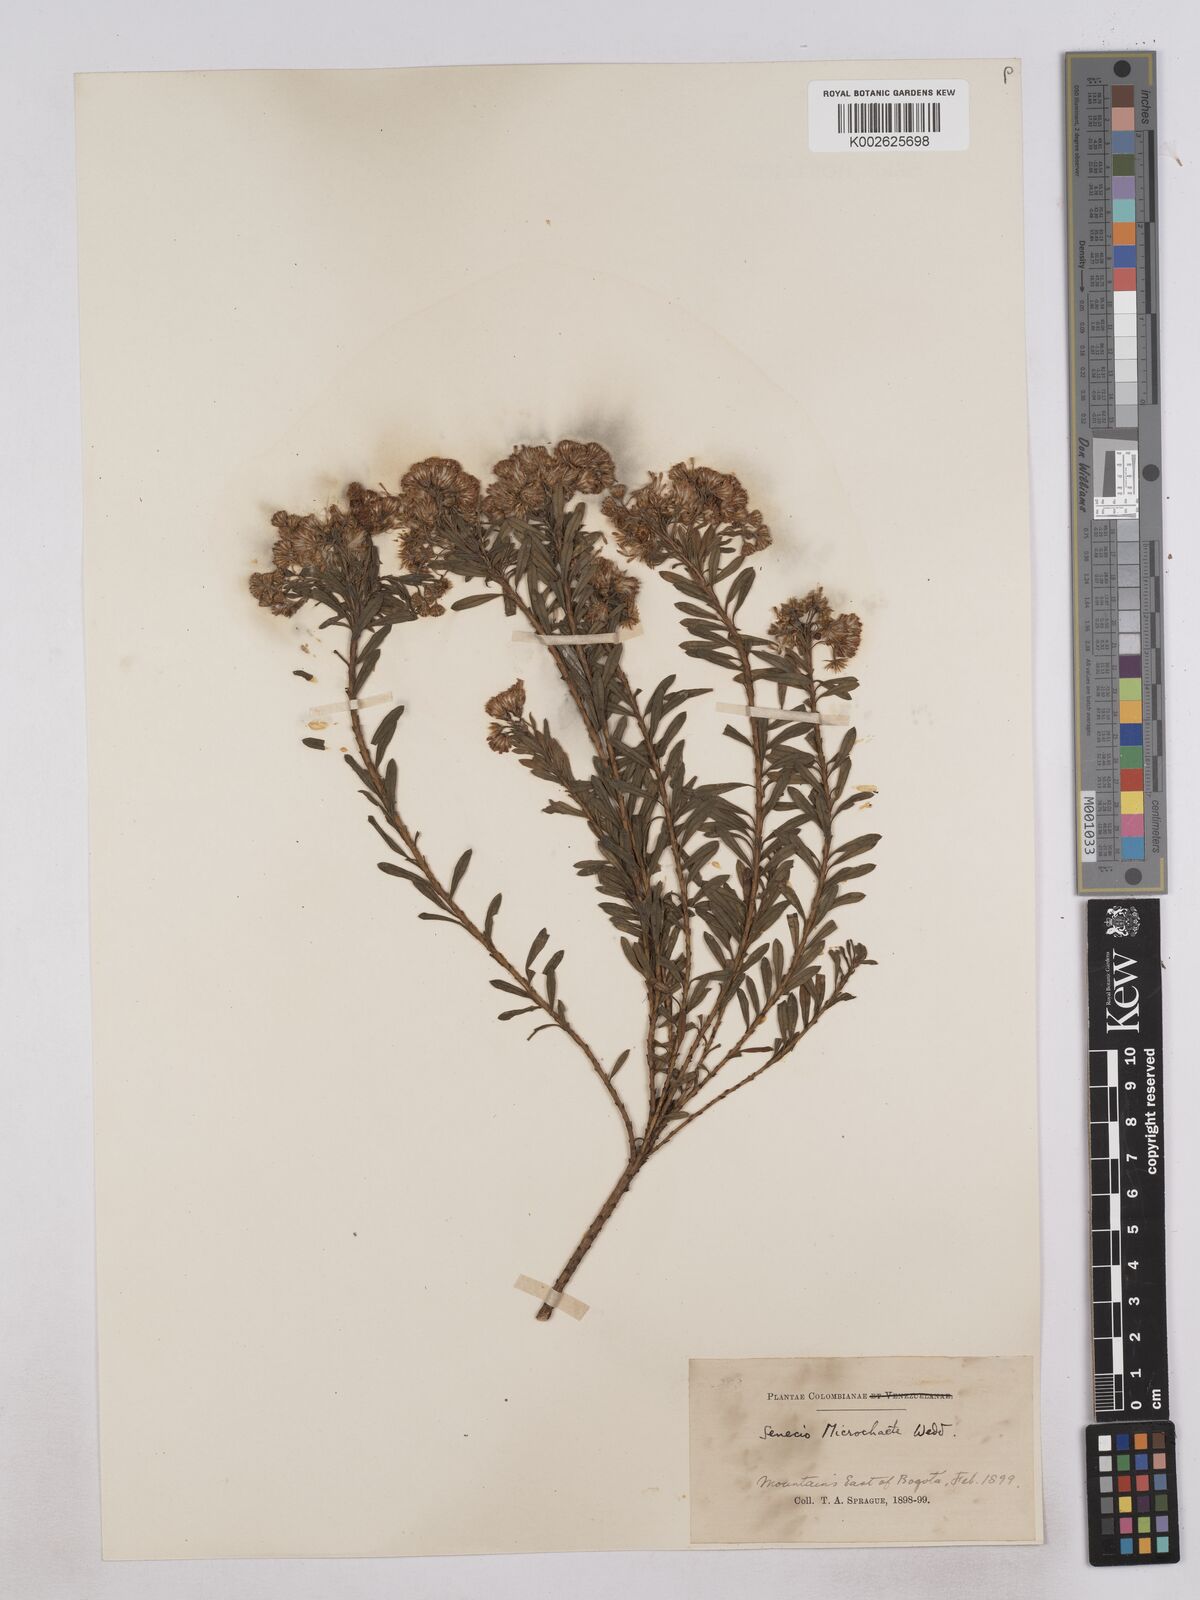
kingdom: Plantae
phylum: Tracheophyta
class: Magnoliopsida
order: Asterales
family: Asteraceae
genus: Monticalia
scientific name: Monticalia corymbosa
